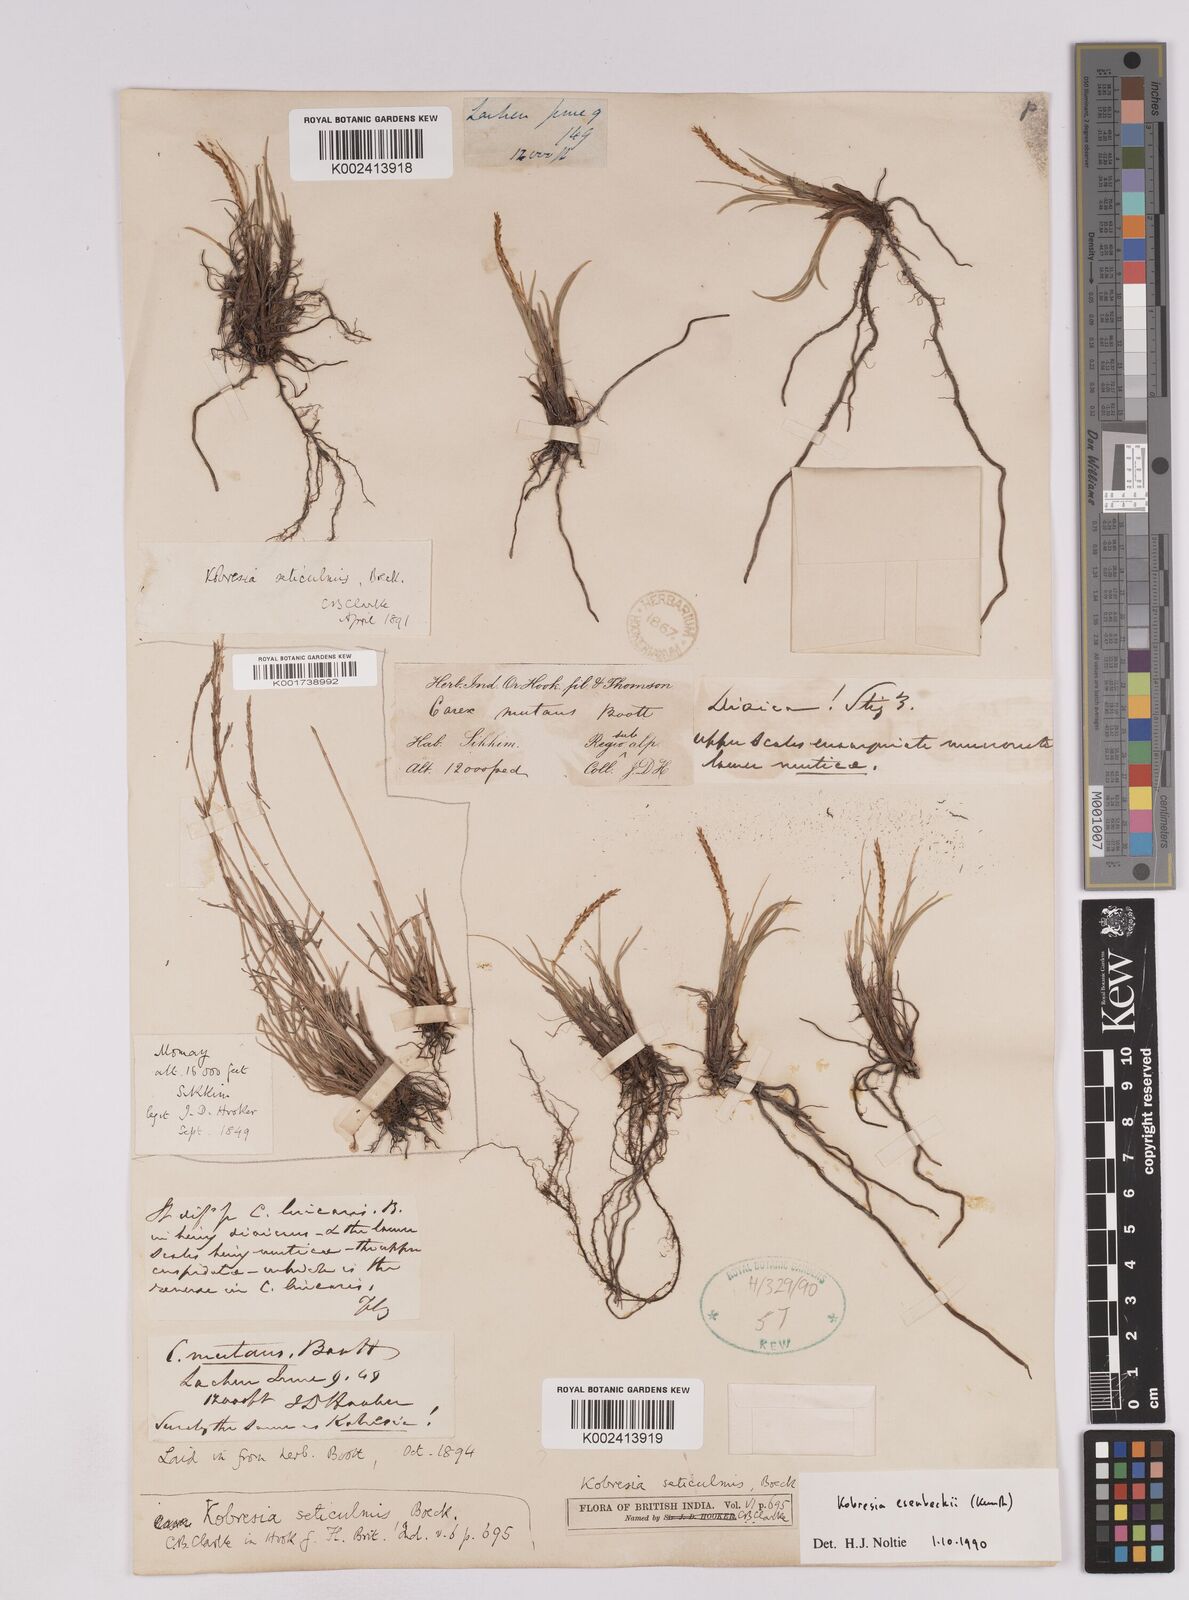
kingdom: Plantae
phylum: Tracheophyta
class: Liliopsida
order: Poales
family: Cyperaceae
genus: Carex
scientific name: Carex esenbeckii
